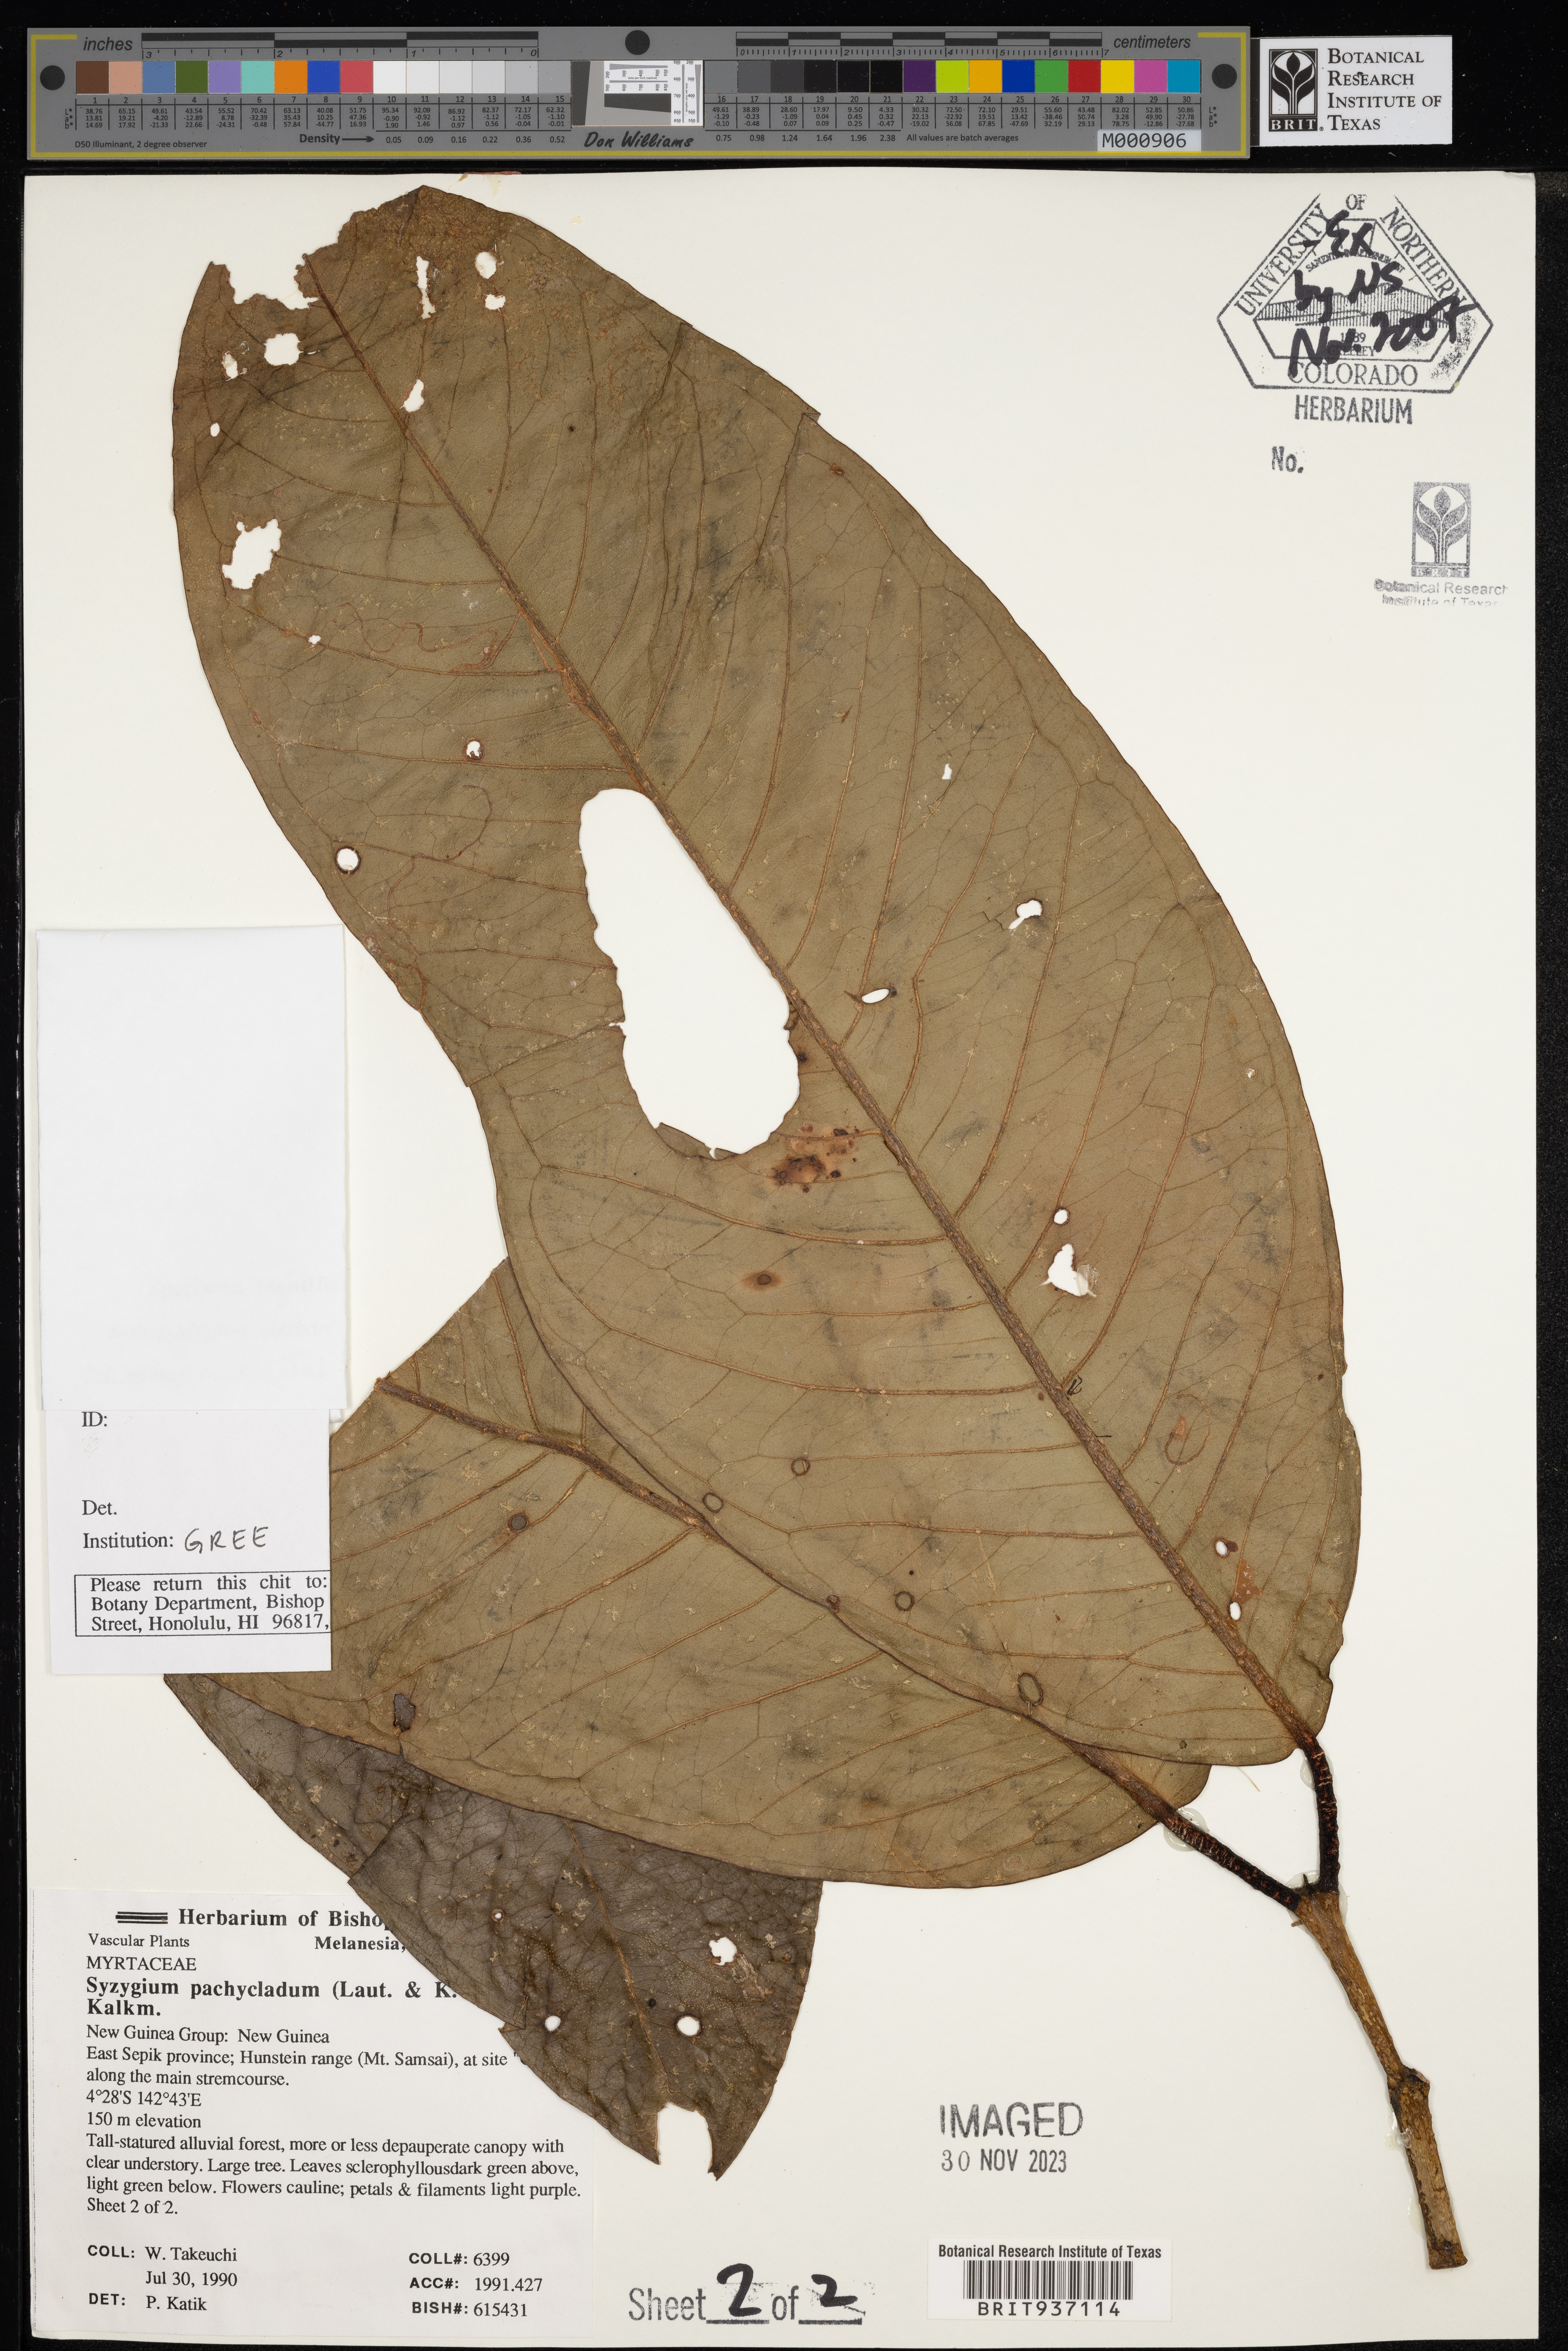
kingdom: Plantae
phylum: Tracheophyta
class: Magnoliopsida
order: Myrtales
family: Myrtaceae
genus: Syzygium
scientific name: Syzygium
